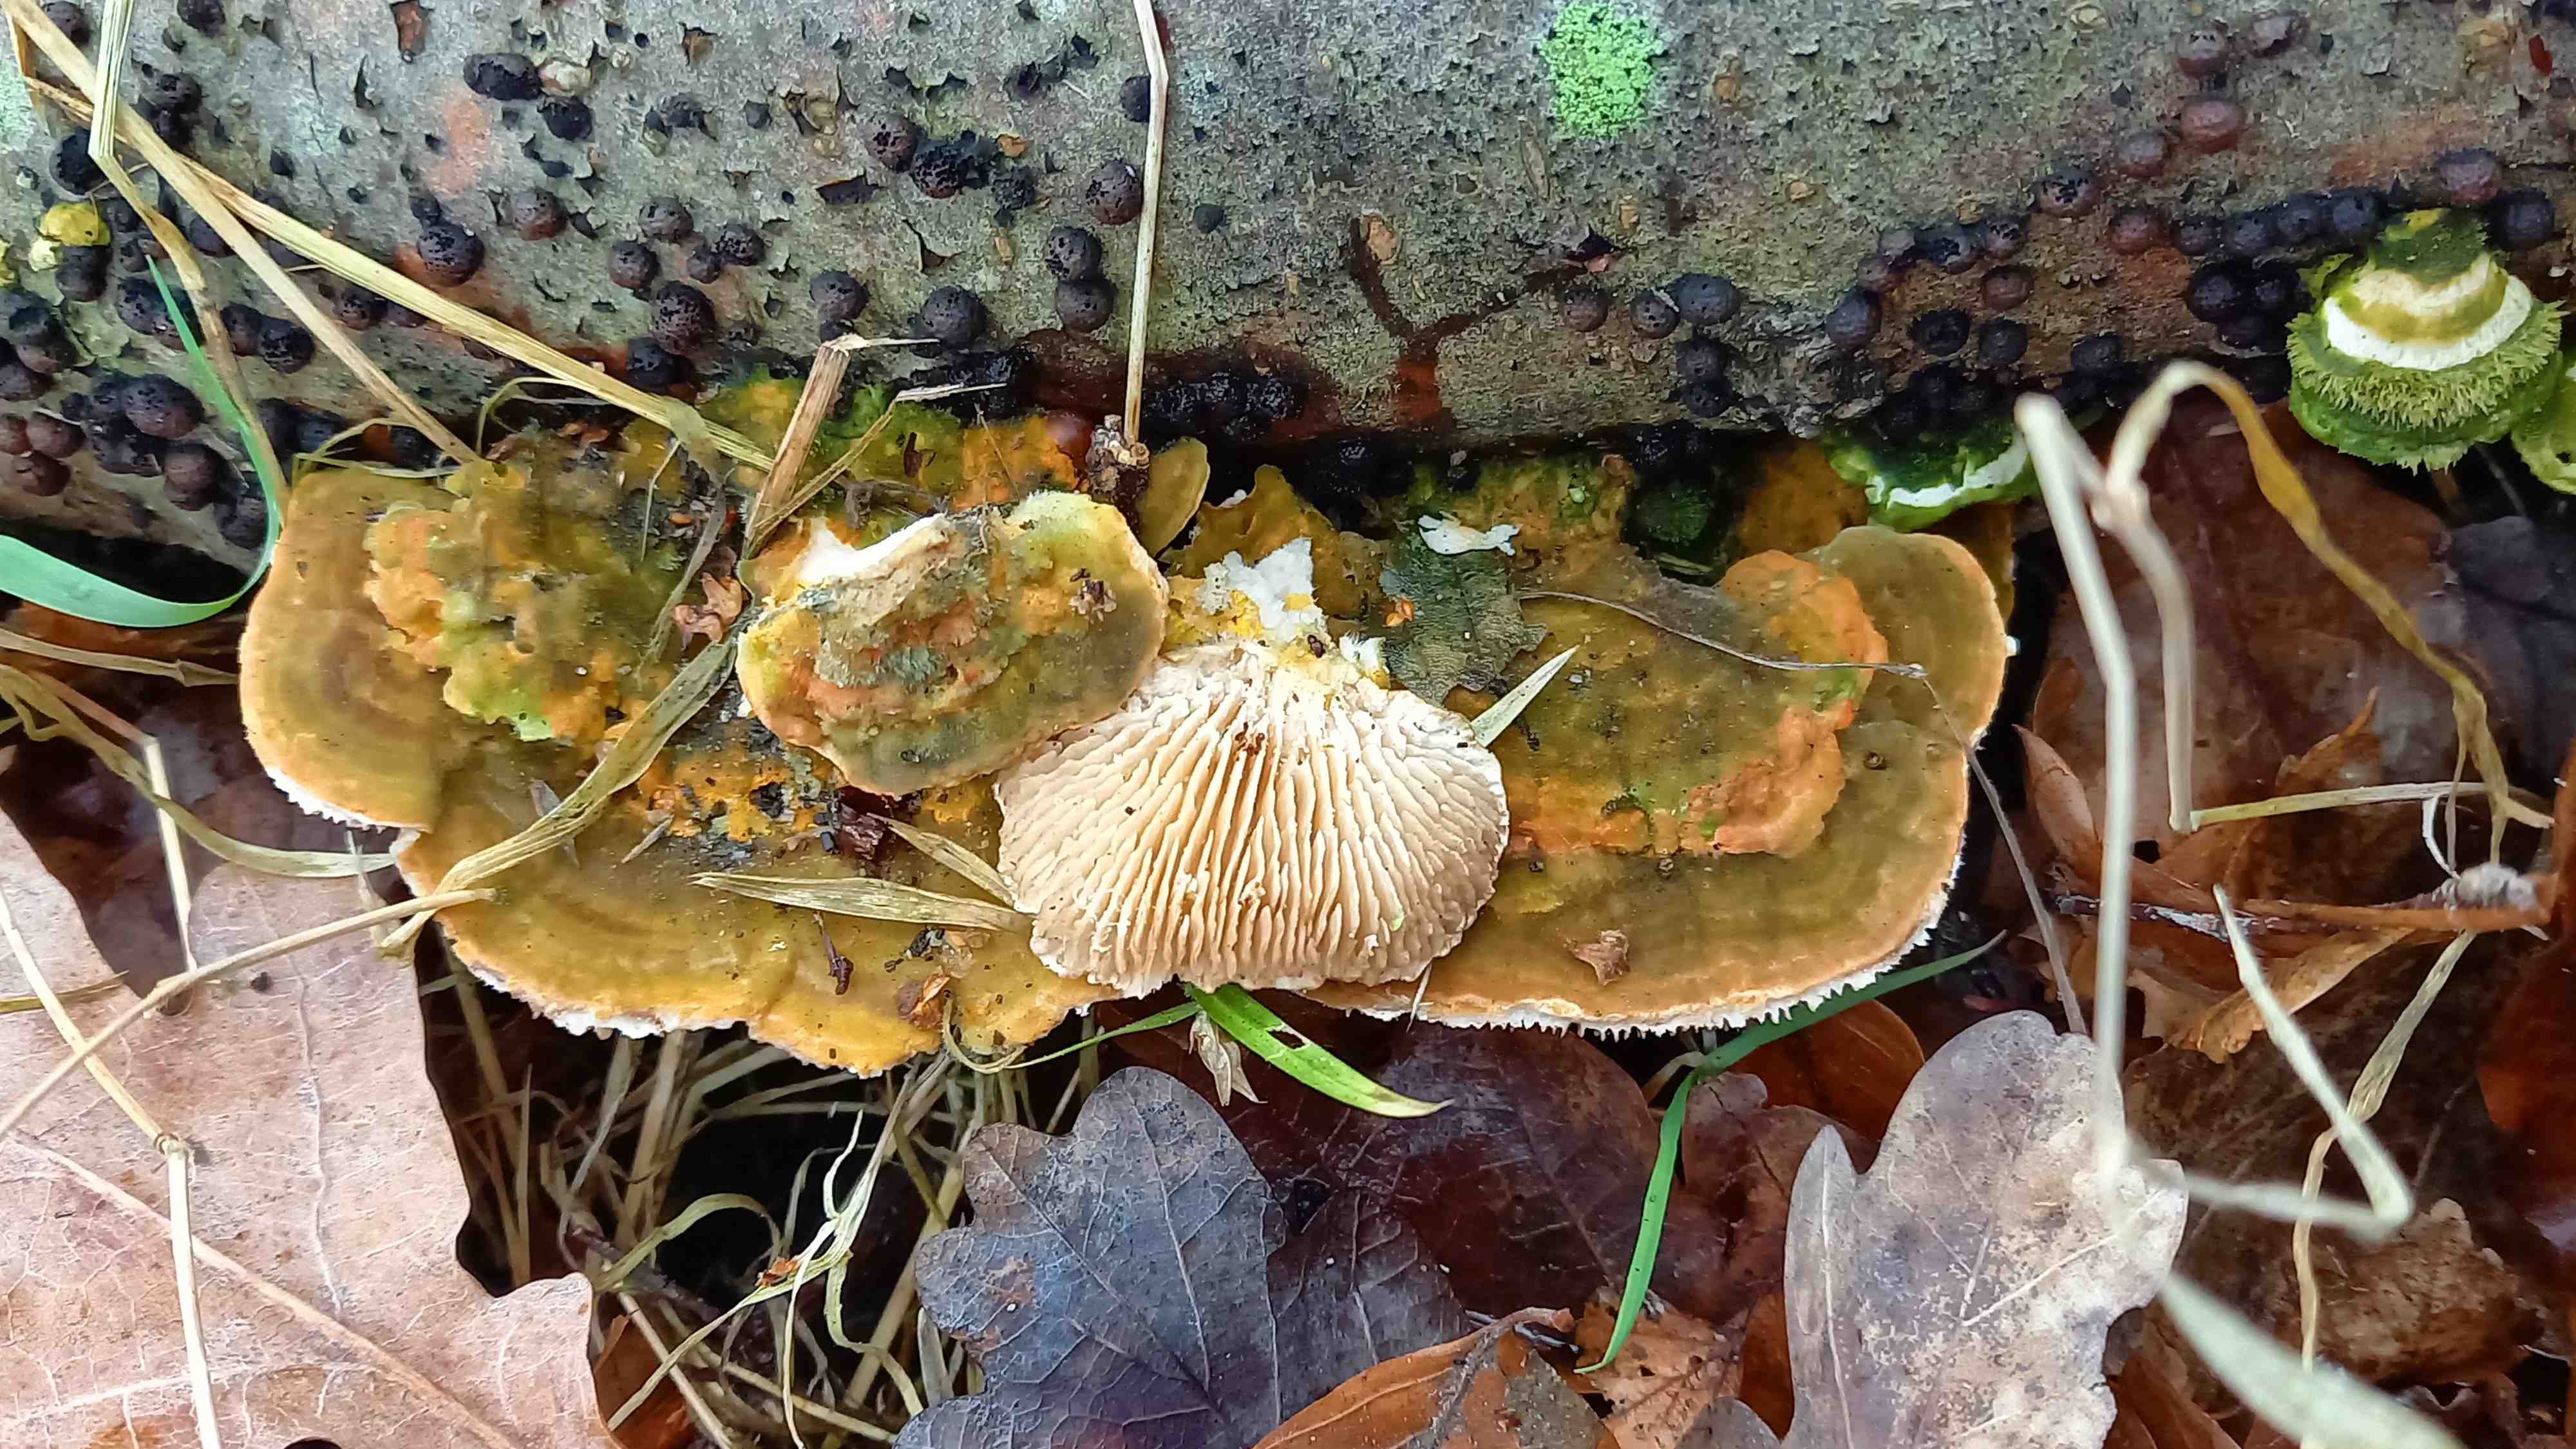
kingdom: Fungi
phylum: Basidiomycota
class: Agaricomycetes
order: Polyporales
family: Polyporaceae
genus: Lenzites
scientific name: Lenzites betulinus
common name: birke-læderporesvamp
